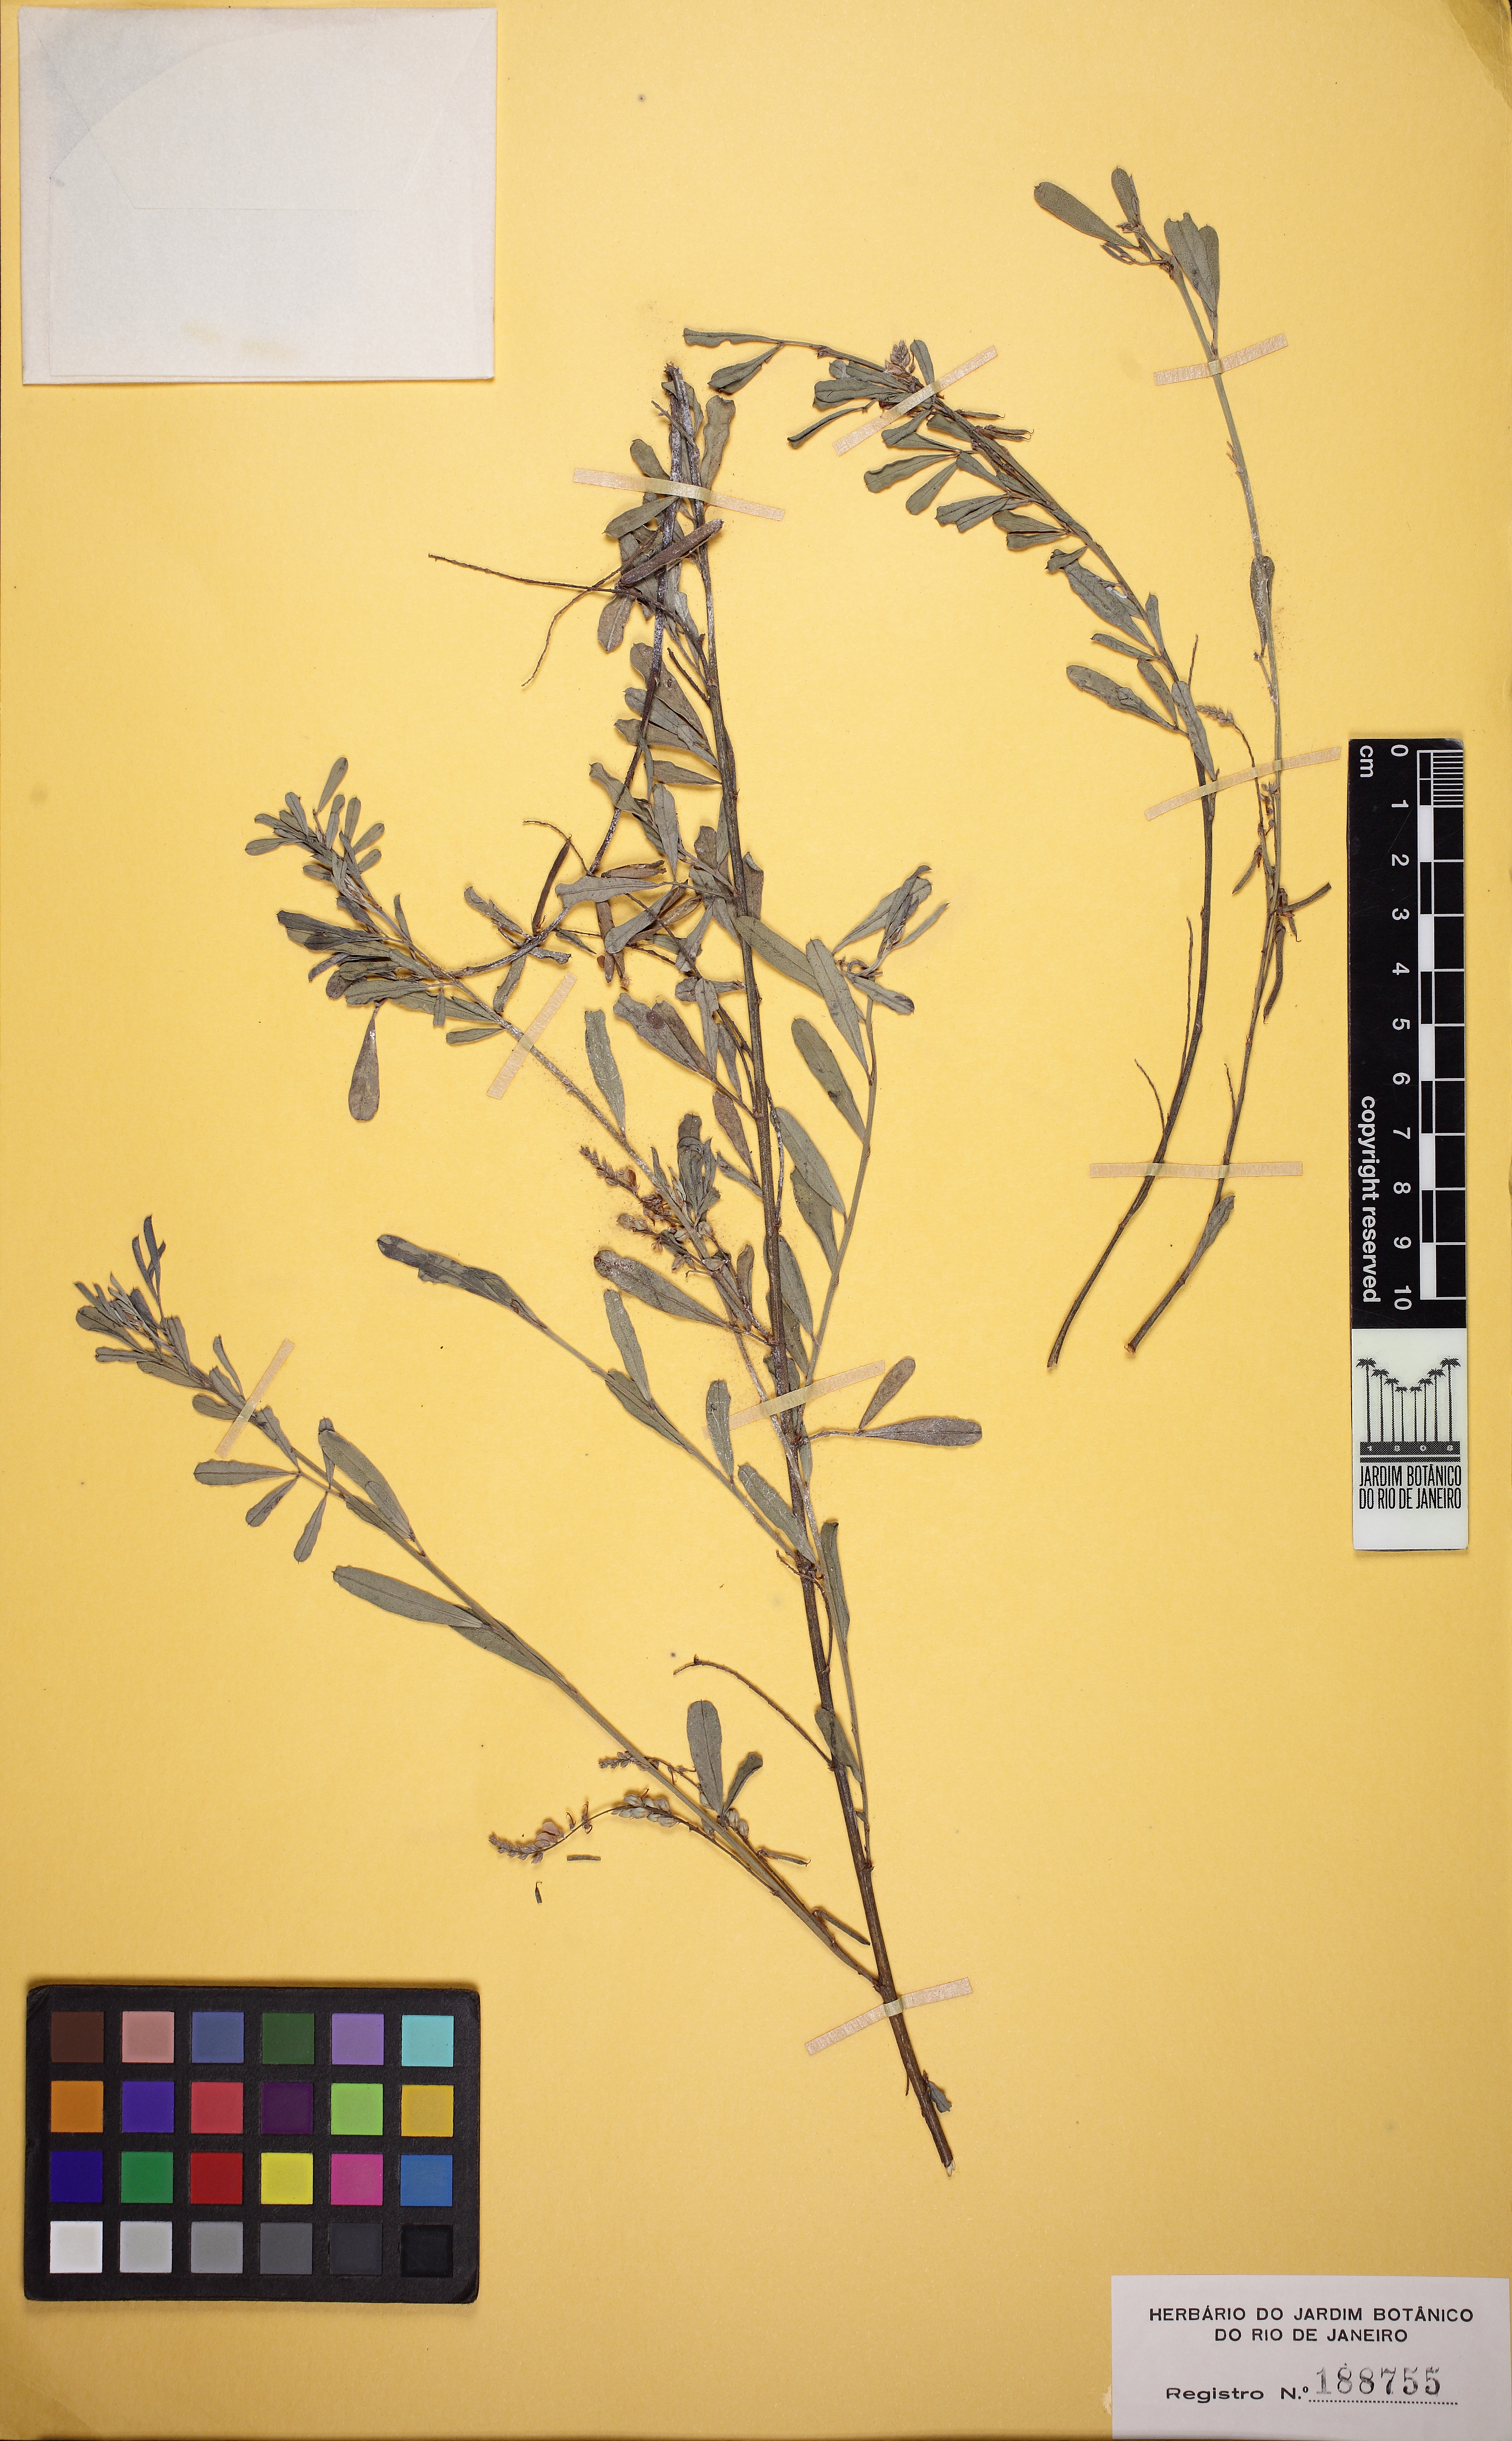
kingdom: Plantae
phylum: Tracheophyta
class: Magnoliopsida
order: Fabales
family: Fabaceae
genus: Indigofera
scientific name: Indigofera lespedezioides
